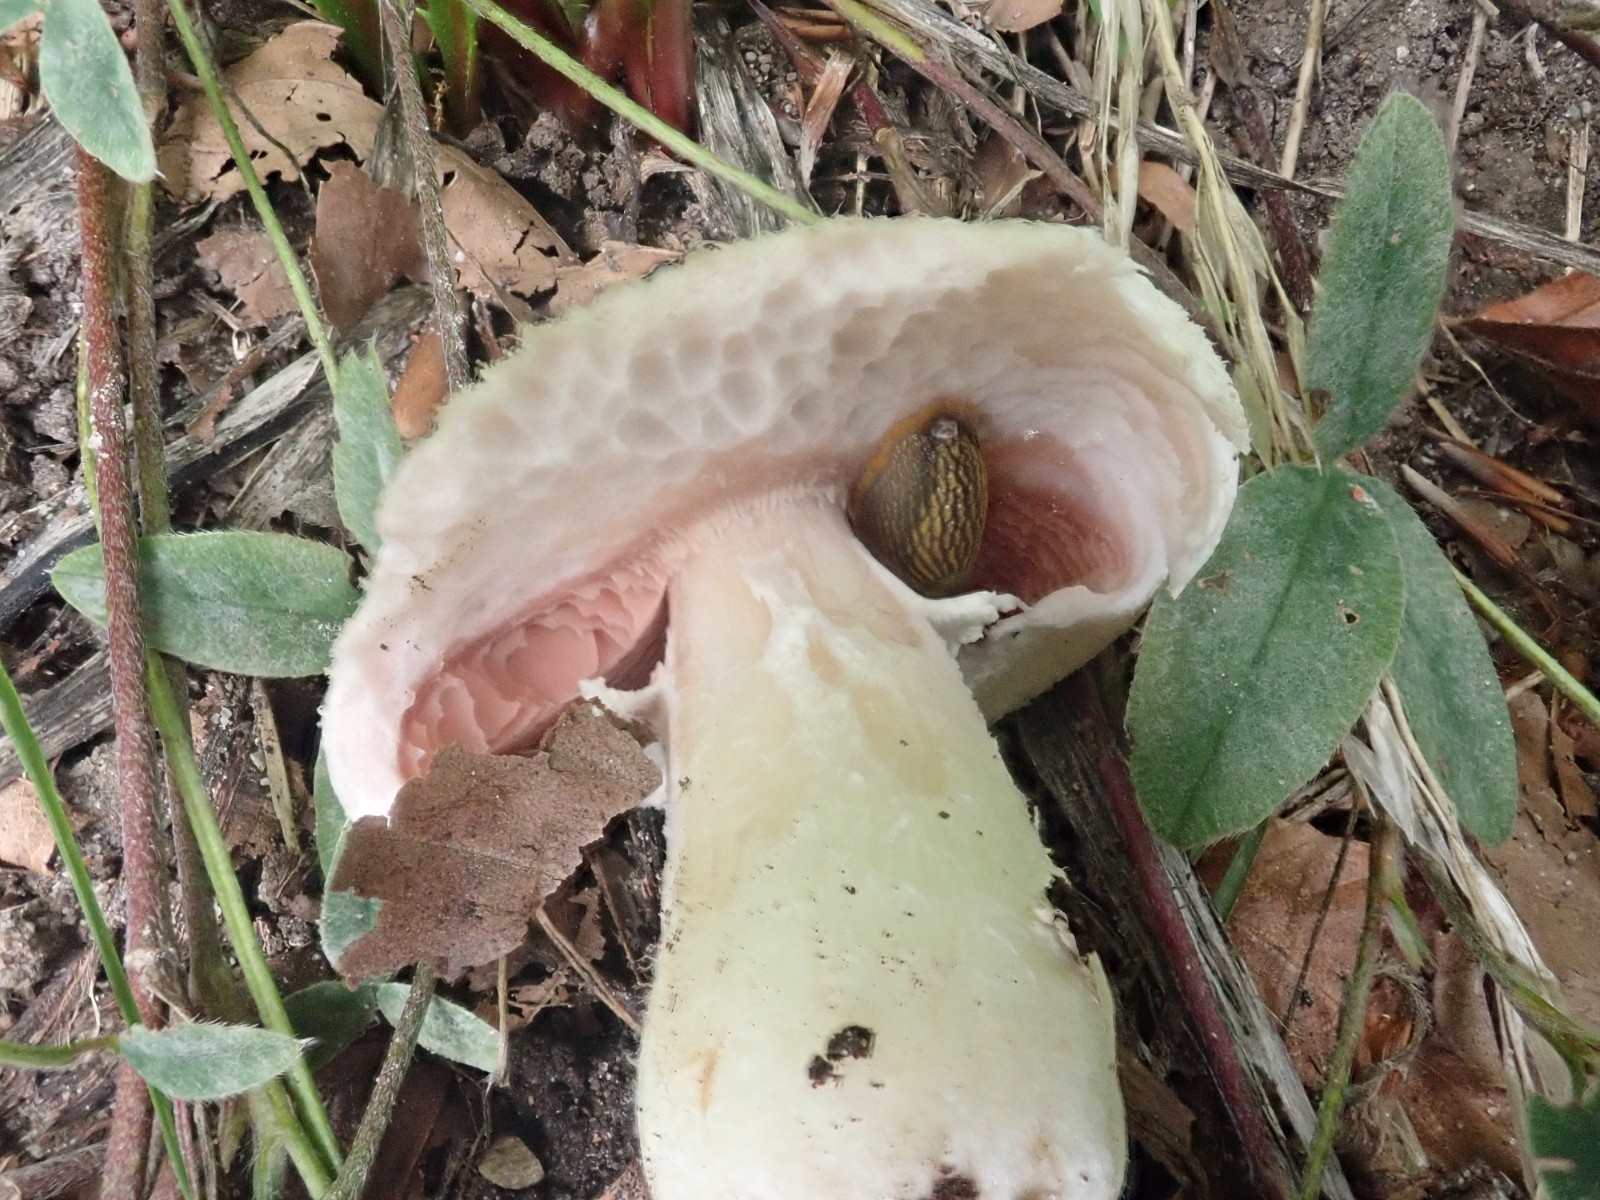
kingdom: Fungi
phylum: Basidiomycota
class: Agaricomycetes
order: Agaricales
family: Agaricaceae
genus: Agaricus
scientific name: Agaricus campestris
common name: mark-champignon
